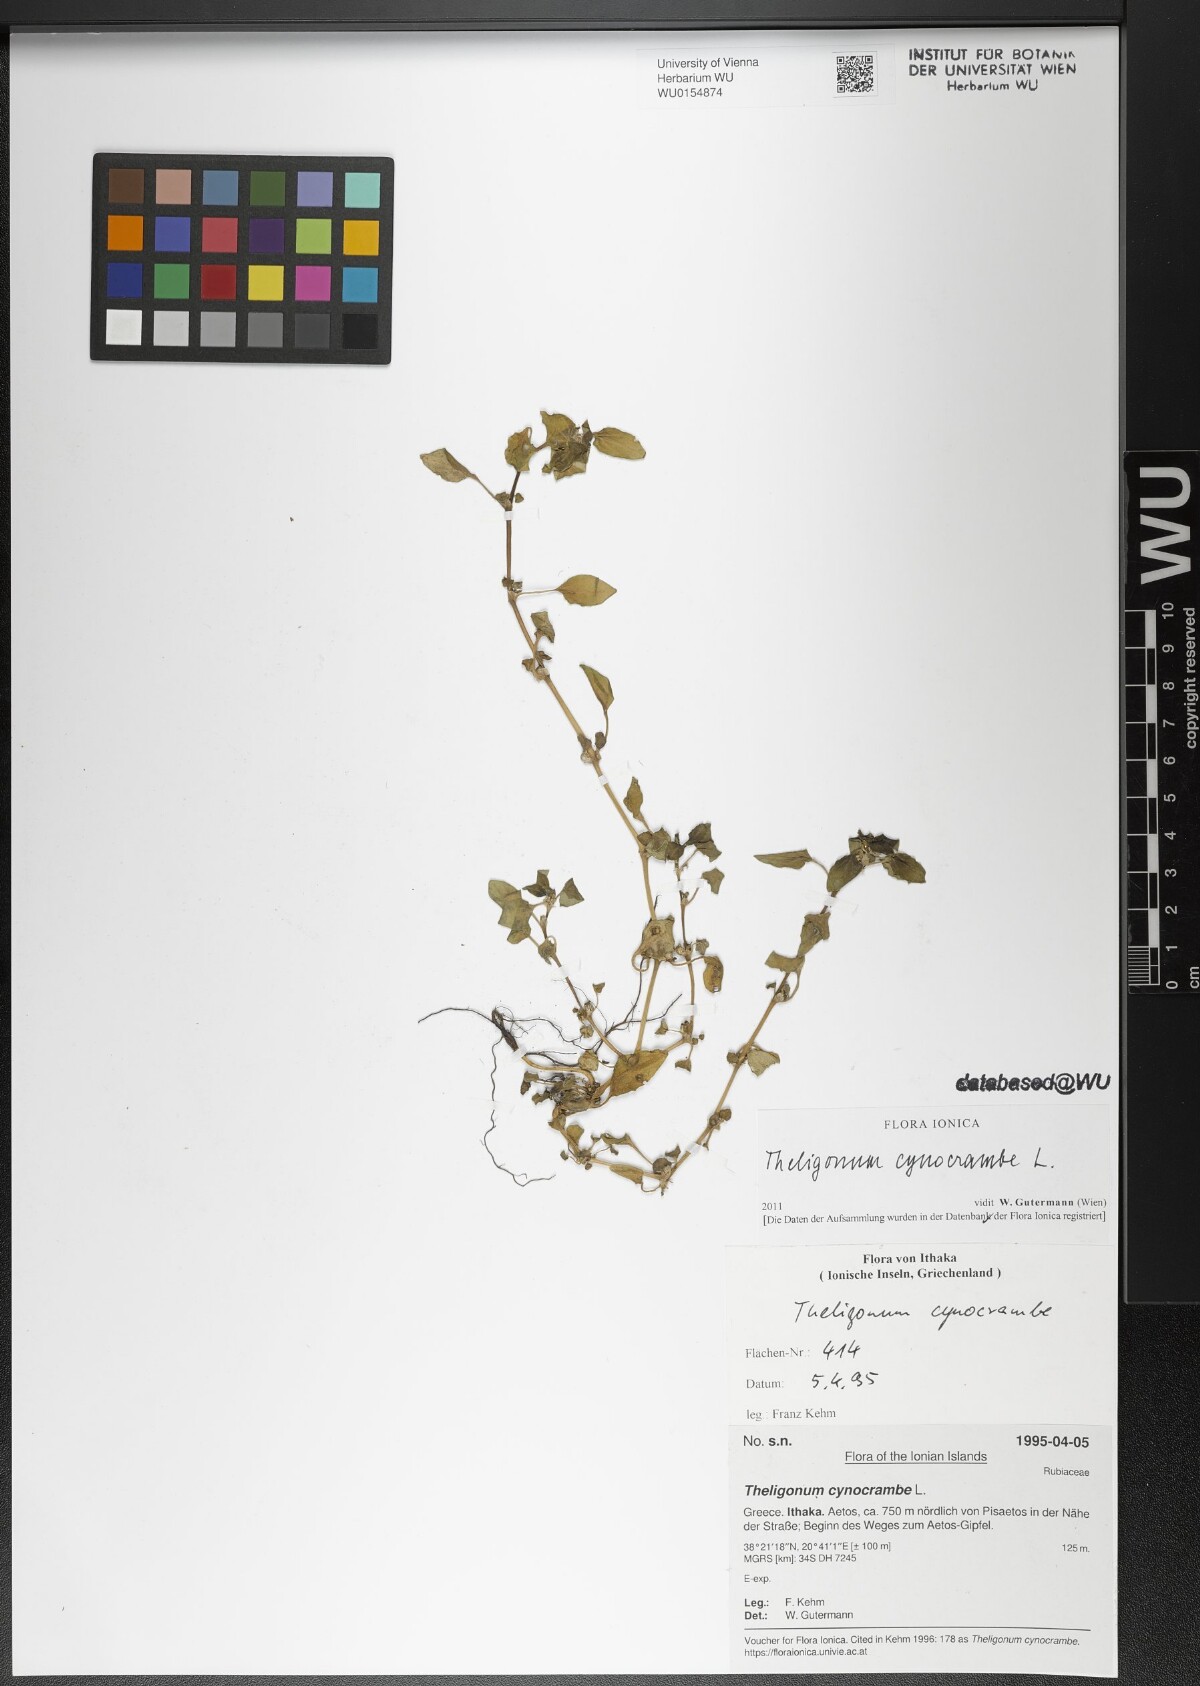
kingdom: Plantae
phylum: Tracheophyta
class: Magnoliopsida
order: Gentianales
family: Rubiaceae
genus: Theligonum
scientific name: Theligonum cynocrambe
